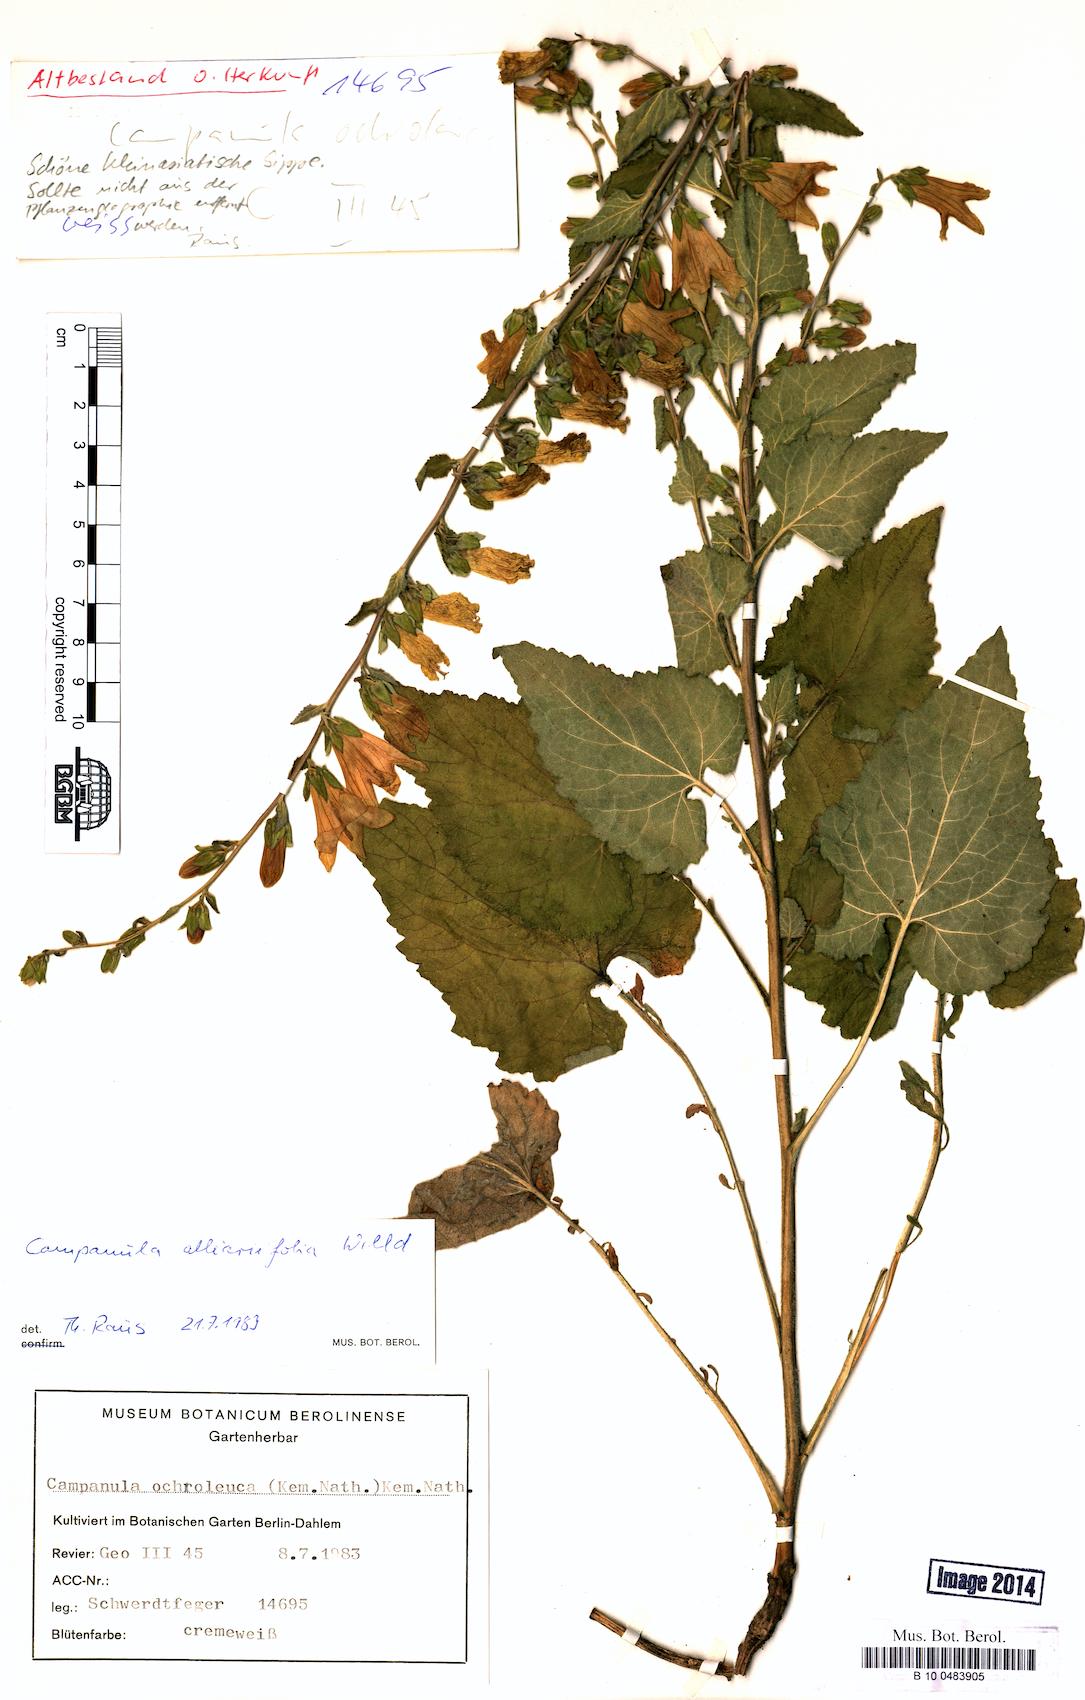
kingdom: Plantae
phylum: Tracheophyta
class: Magnoliopsida
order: Asterales
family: Campanulaceae
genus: Campanula
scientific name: Campanula alliariifolia
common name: Cornish bellflower
